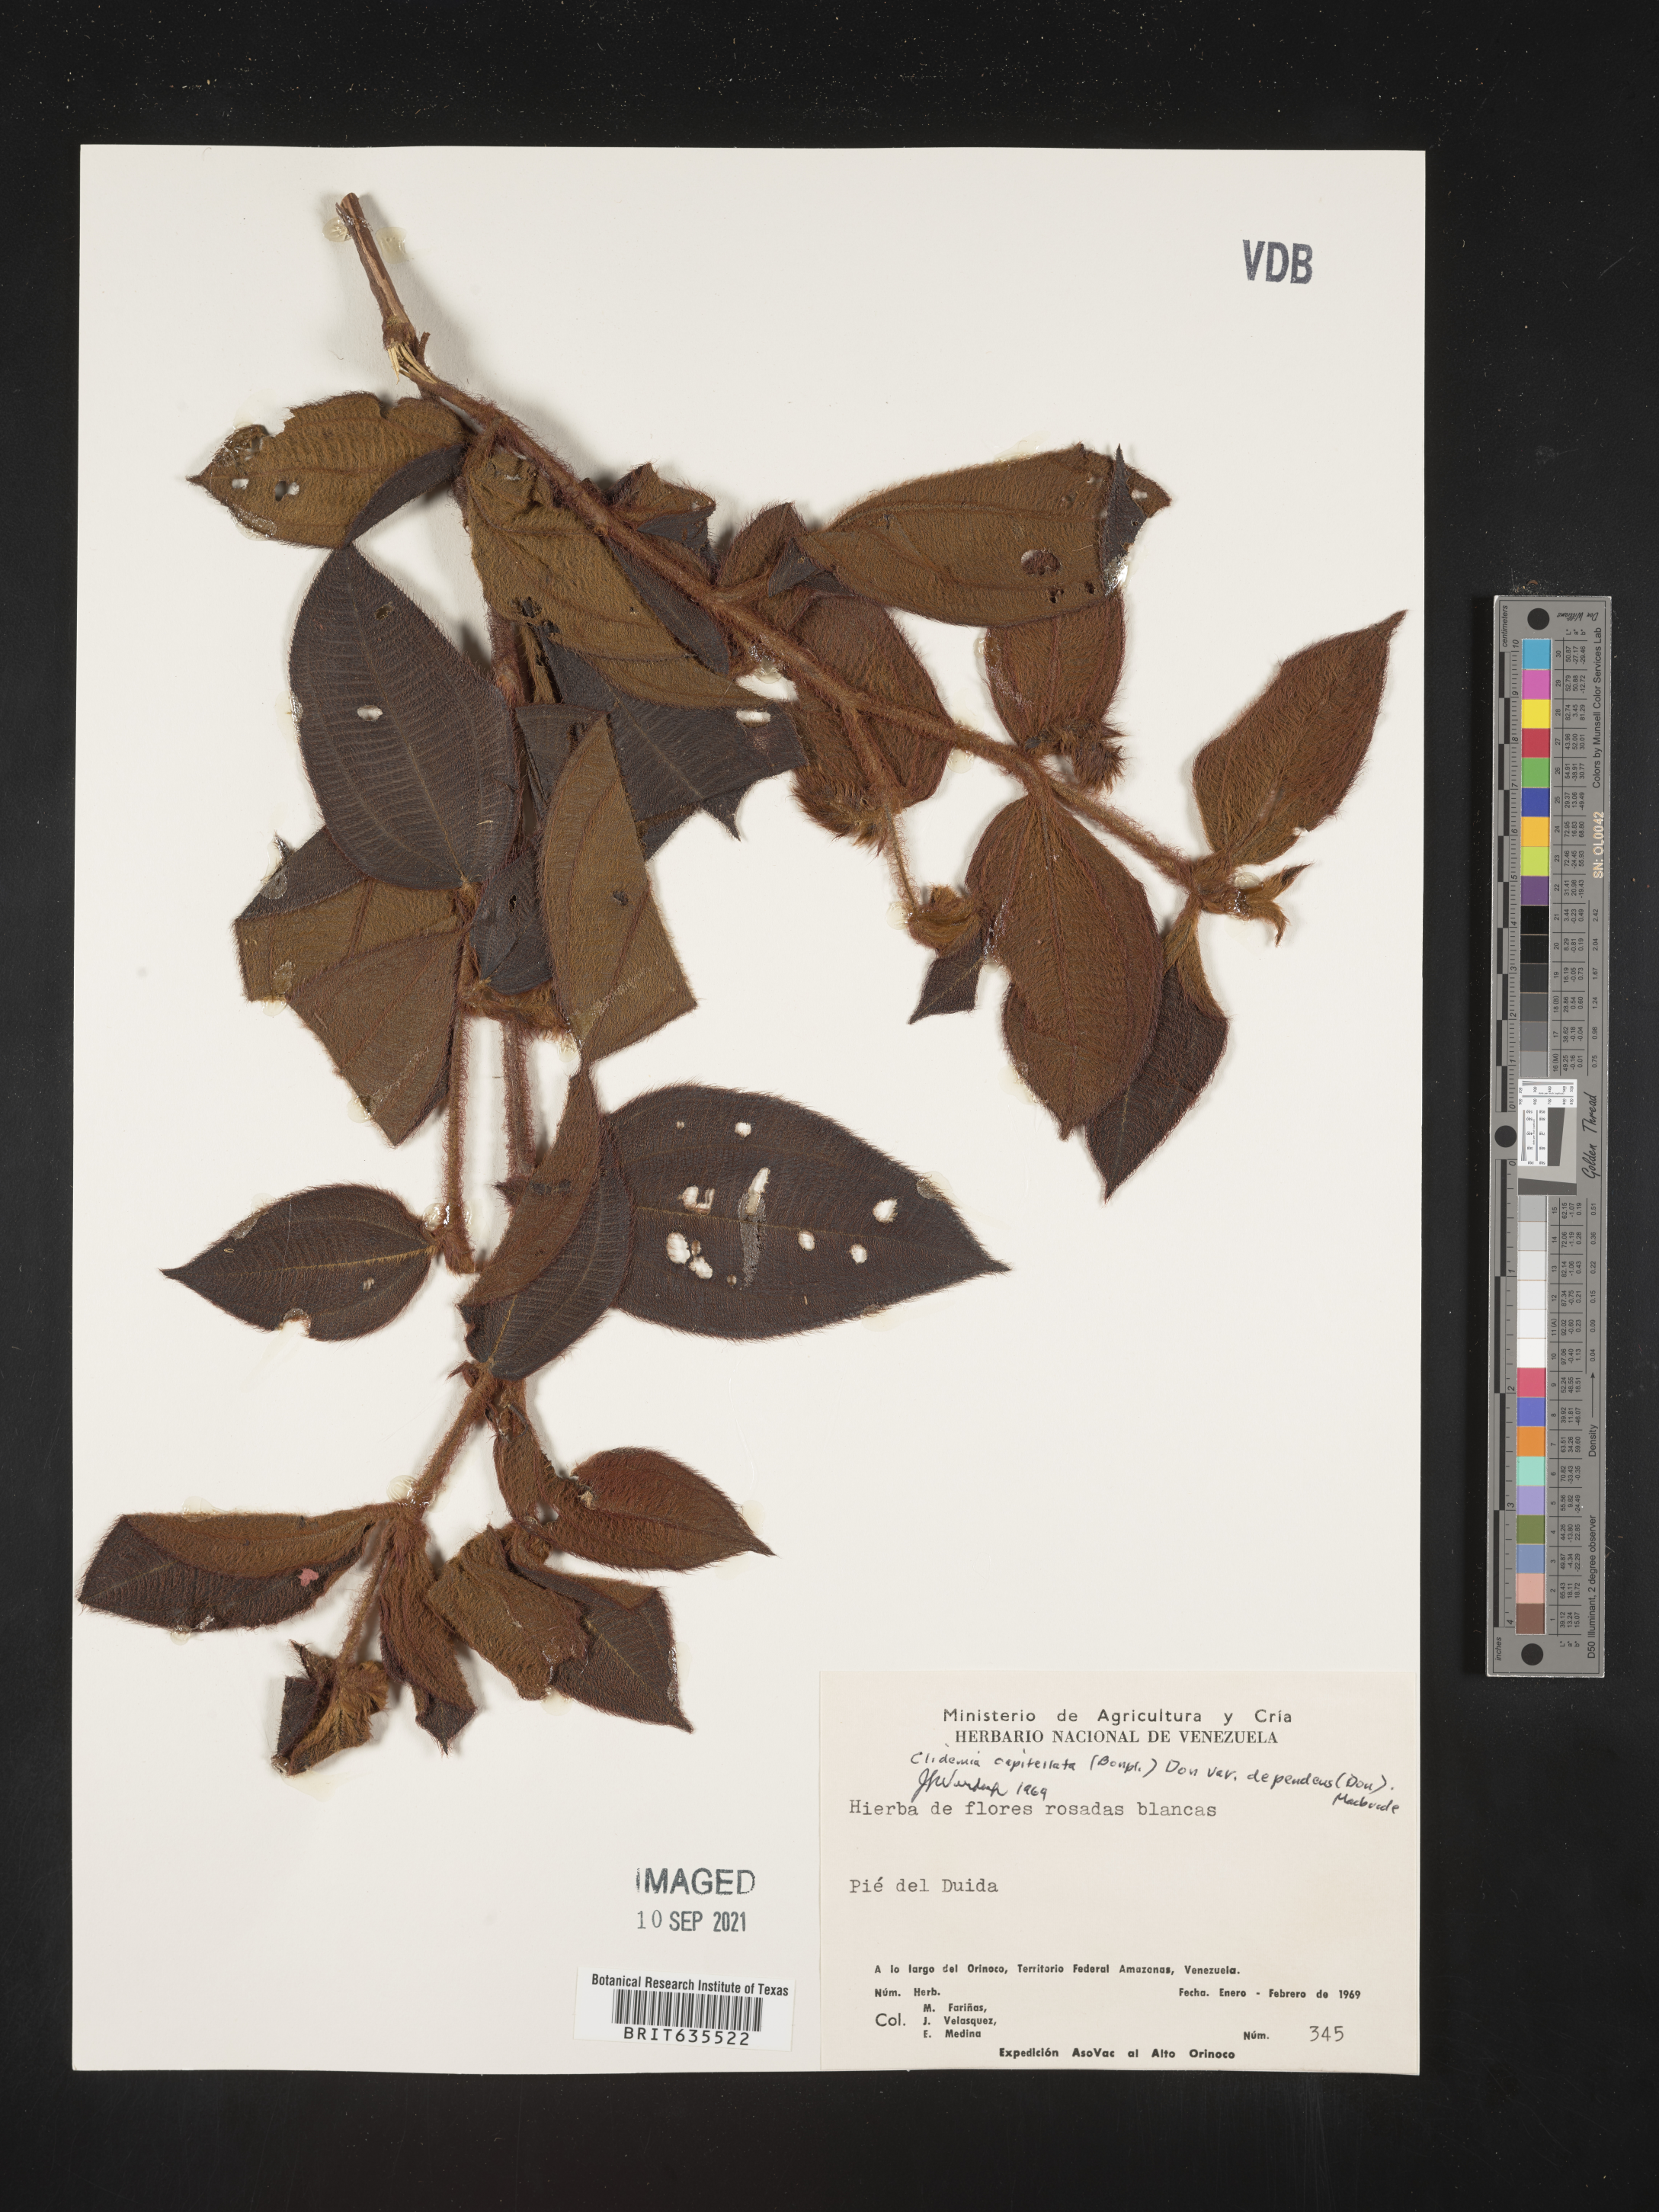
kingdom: Plantae
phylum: Tracheophyta
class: Magnoliopsida
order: Myrtales
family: Melastomataceae
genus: Miconia
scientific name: Miconia
